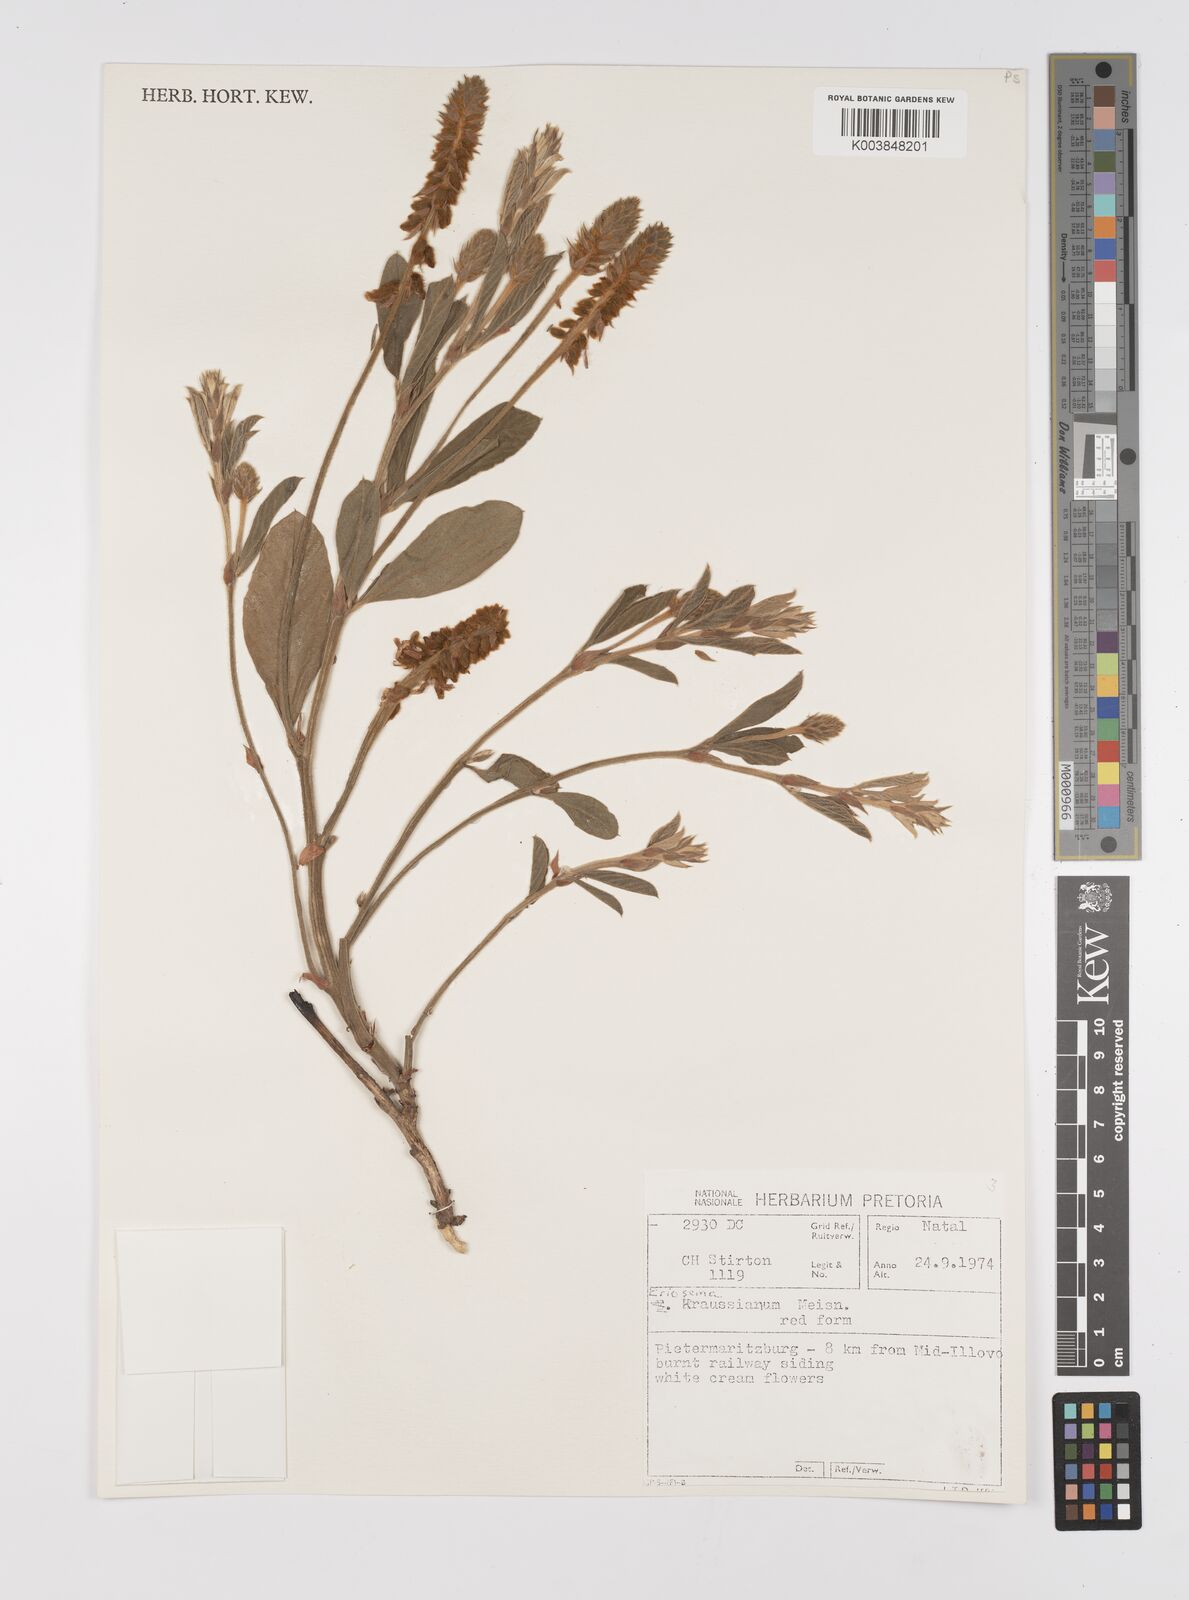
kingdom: Plantae
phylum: Tracheophyta
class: Magnoliopsida
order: Fabales
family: Fabaceae
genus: Eriosema
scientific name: Eriosema kraussianum
